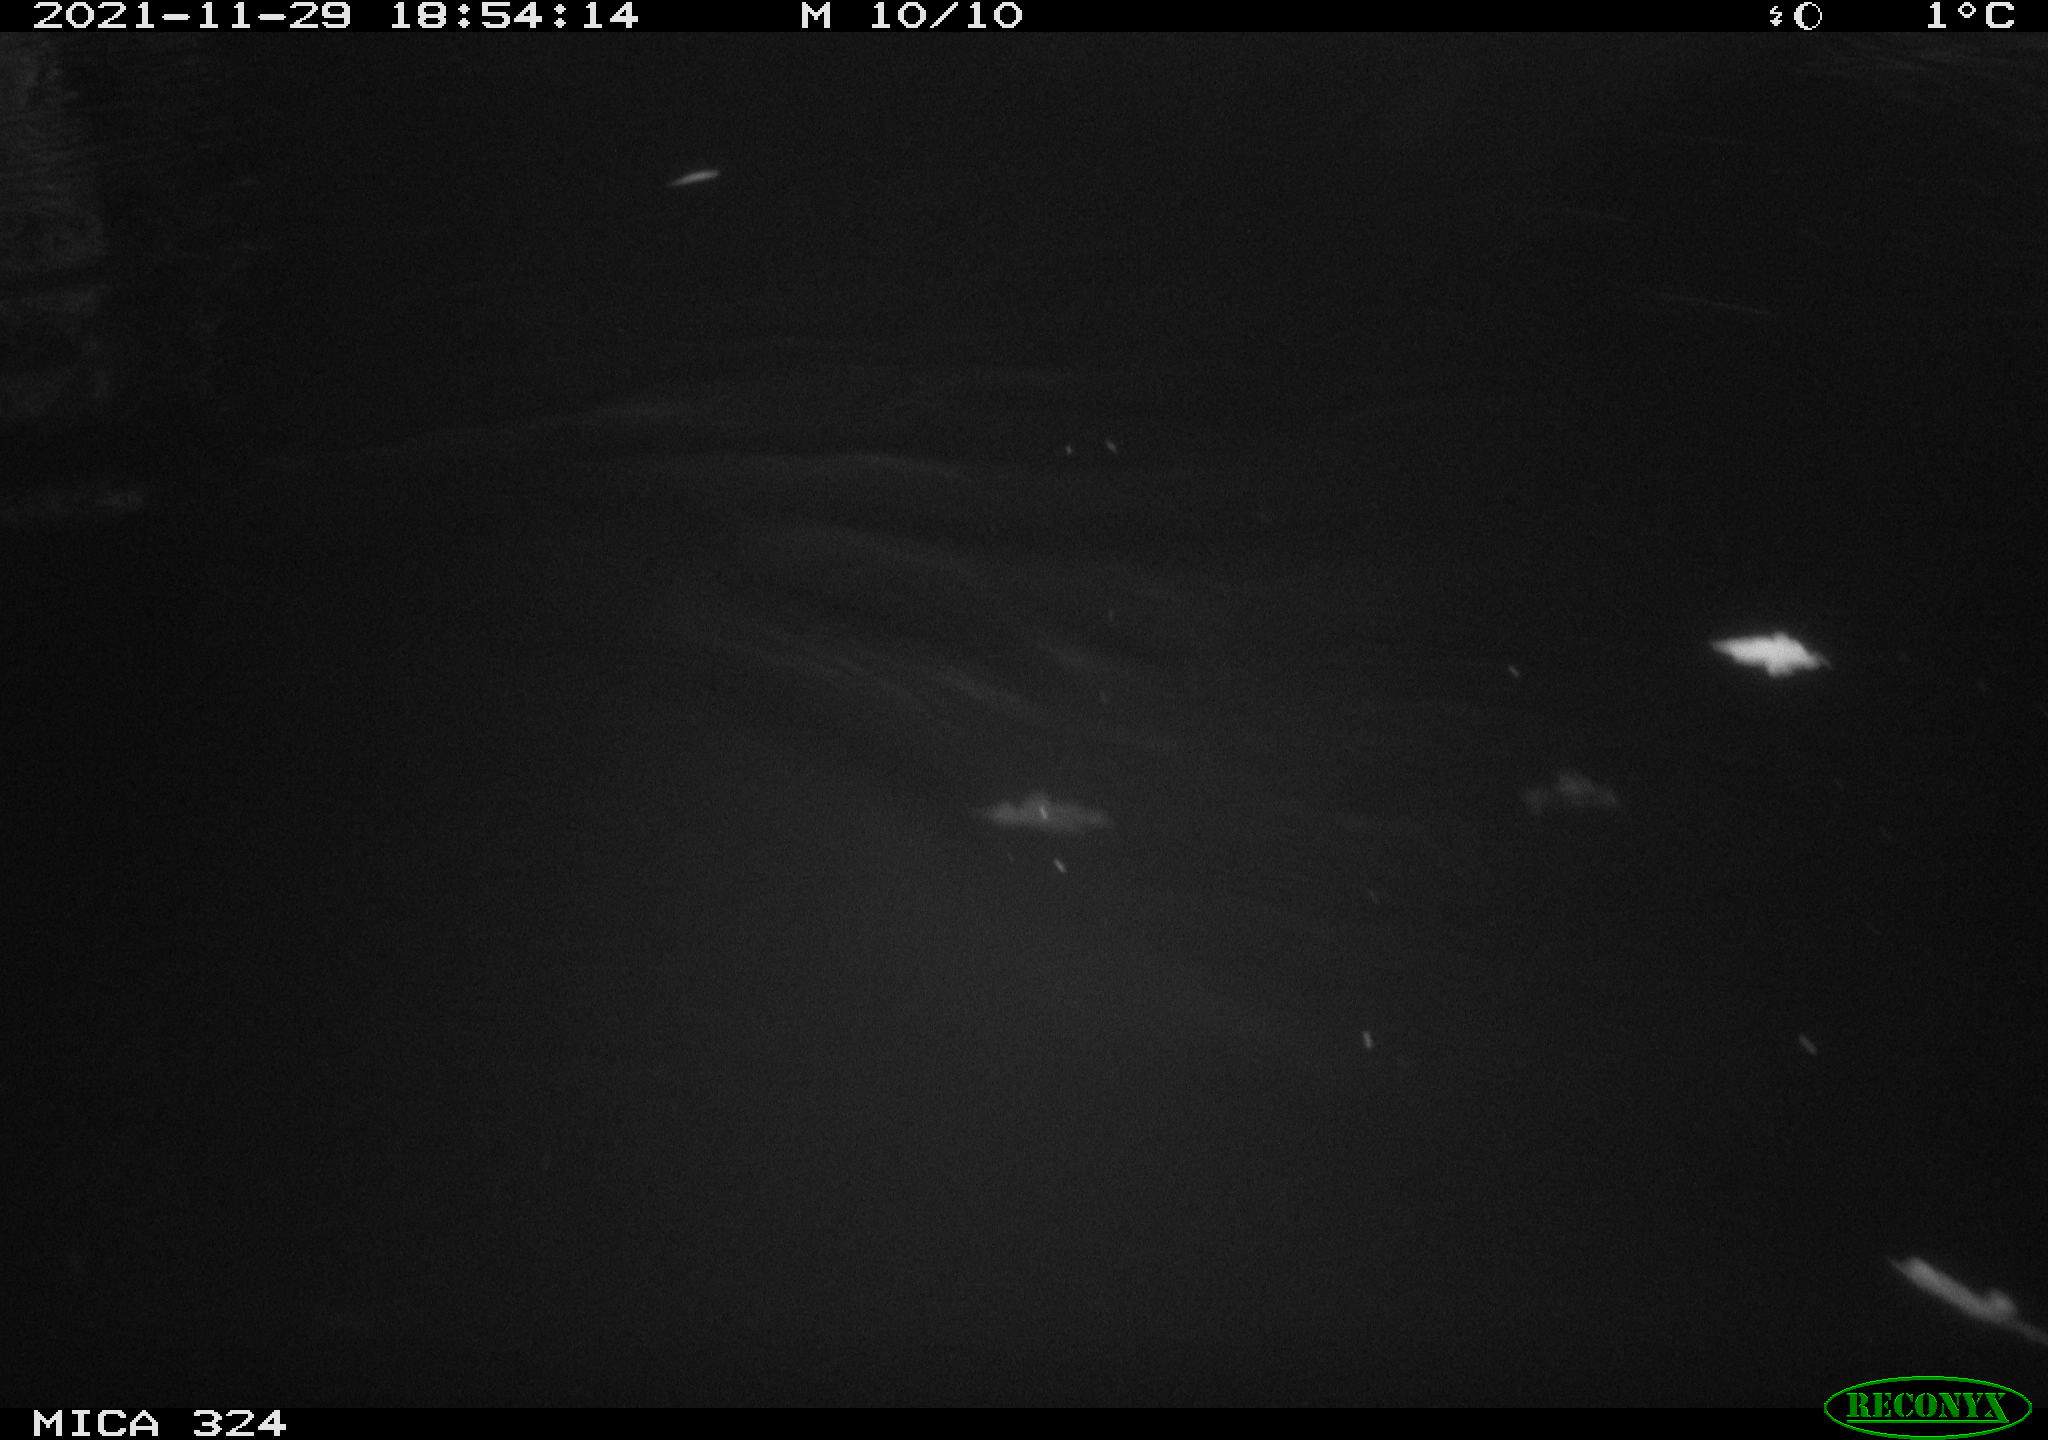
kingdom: Animalia
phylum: Chordata
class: Mammalia
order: Rodentia
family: Cricetidae
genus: Ondatra
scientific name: Ondatra zibethicus
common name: Muskrat
